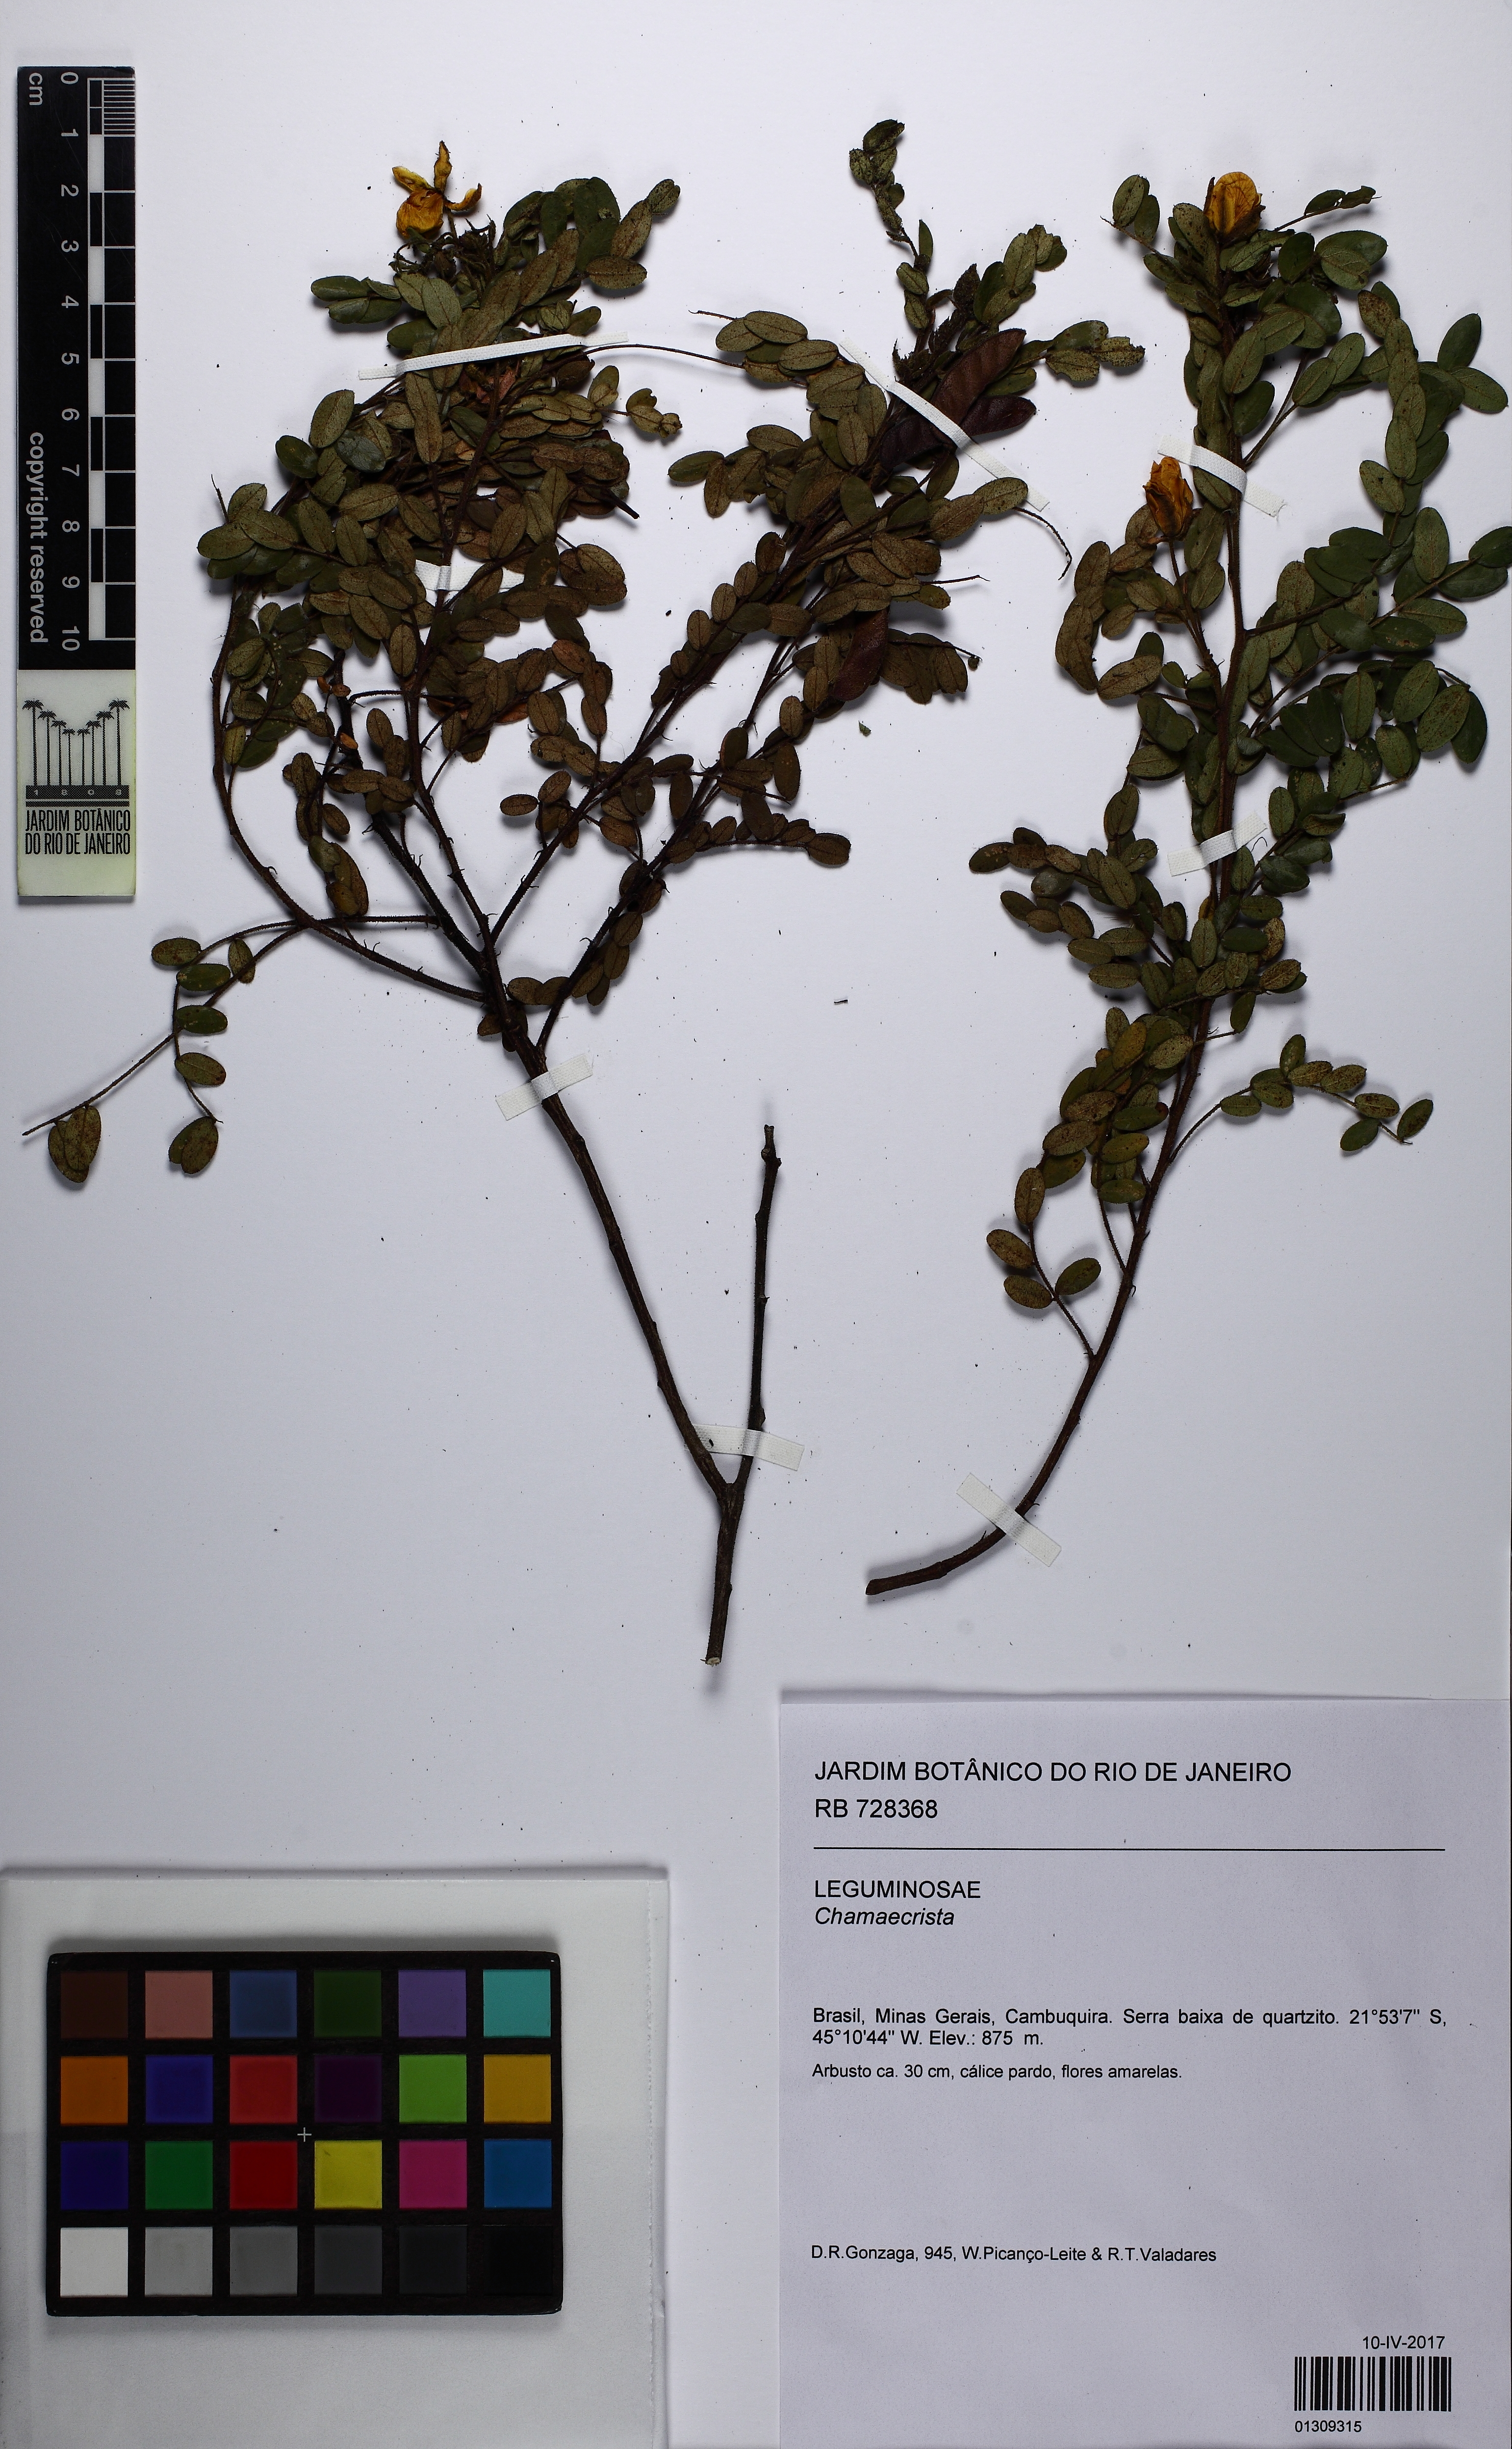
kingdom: Plantae
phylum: Tracheophyta
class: Magnoliopsida
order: Fabales
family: Fabaceae
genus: Chamaecrista
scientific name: Chamaecrista
